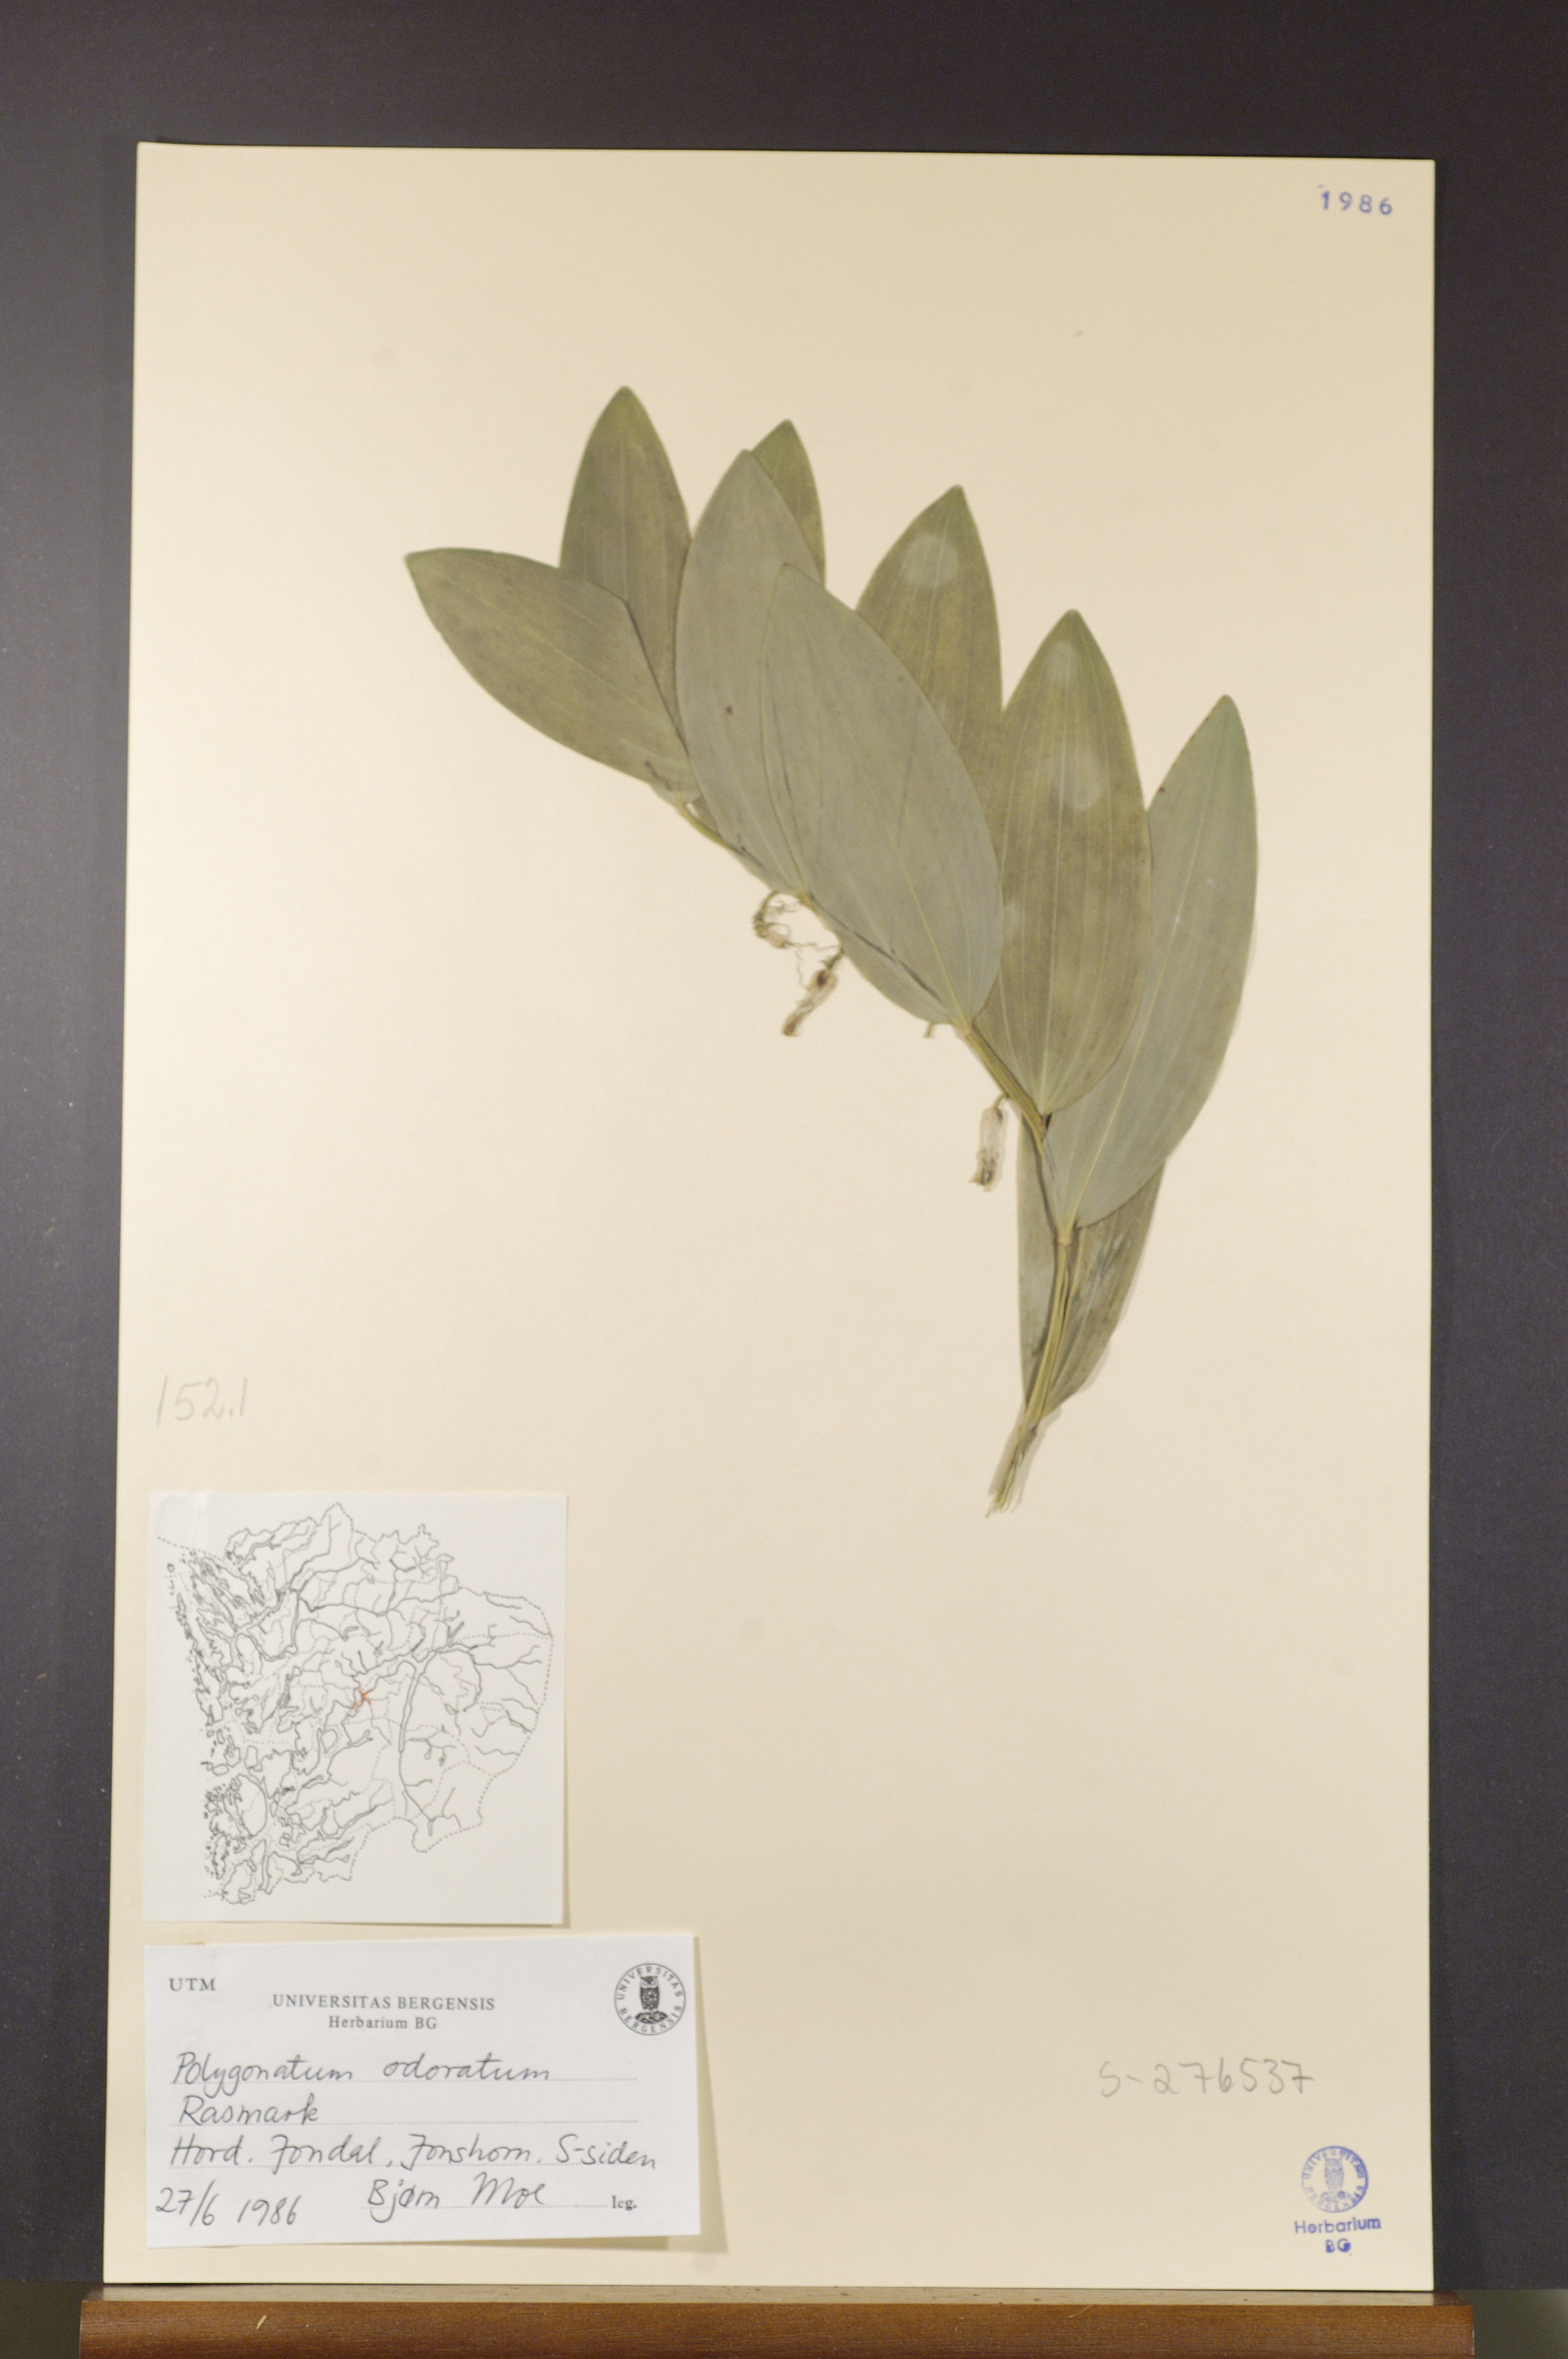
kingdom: Plantae
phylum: Tracheophyta
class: Liliopsida
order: Asparagales
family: Asparagaceae
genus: Polygonatum
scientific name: Polygonatum odoratum
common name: Angular solomon's-seal
